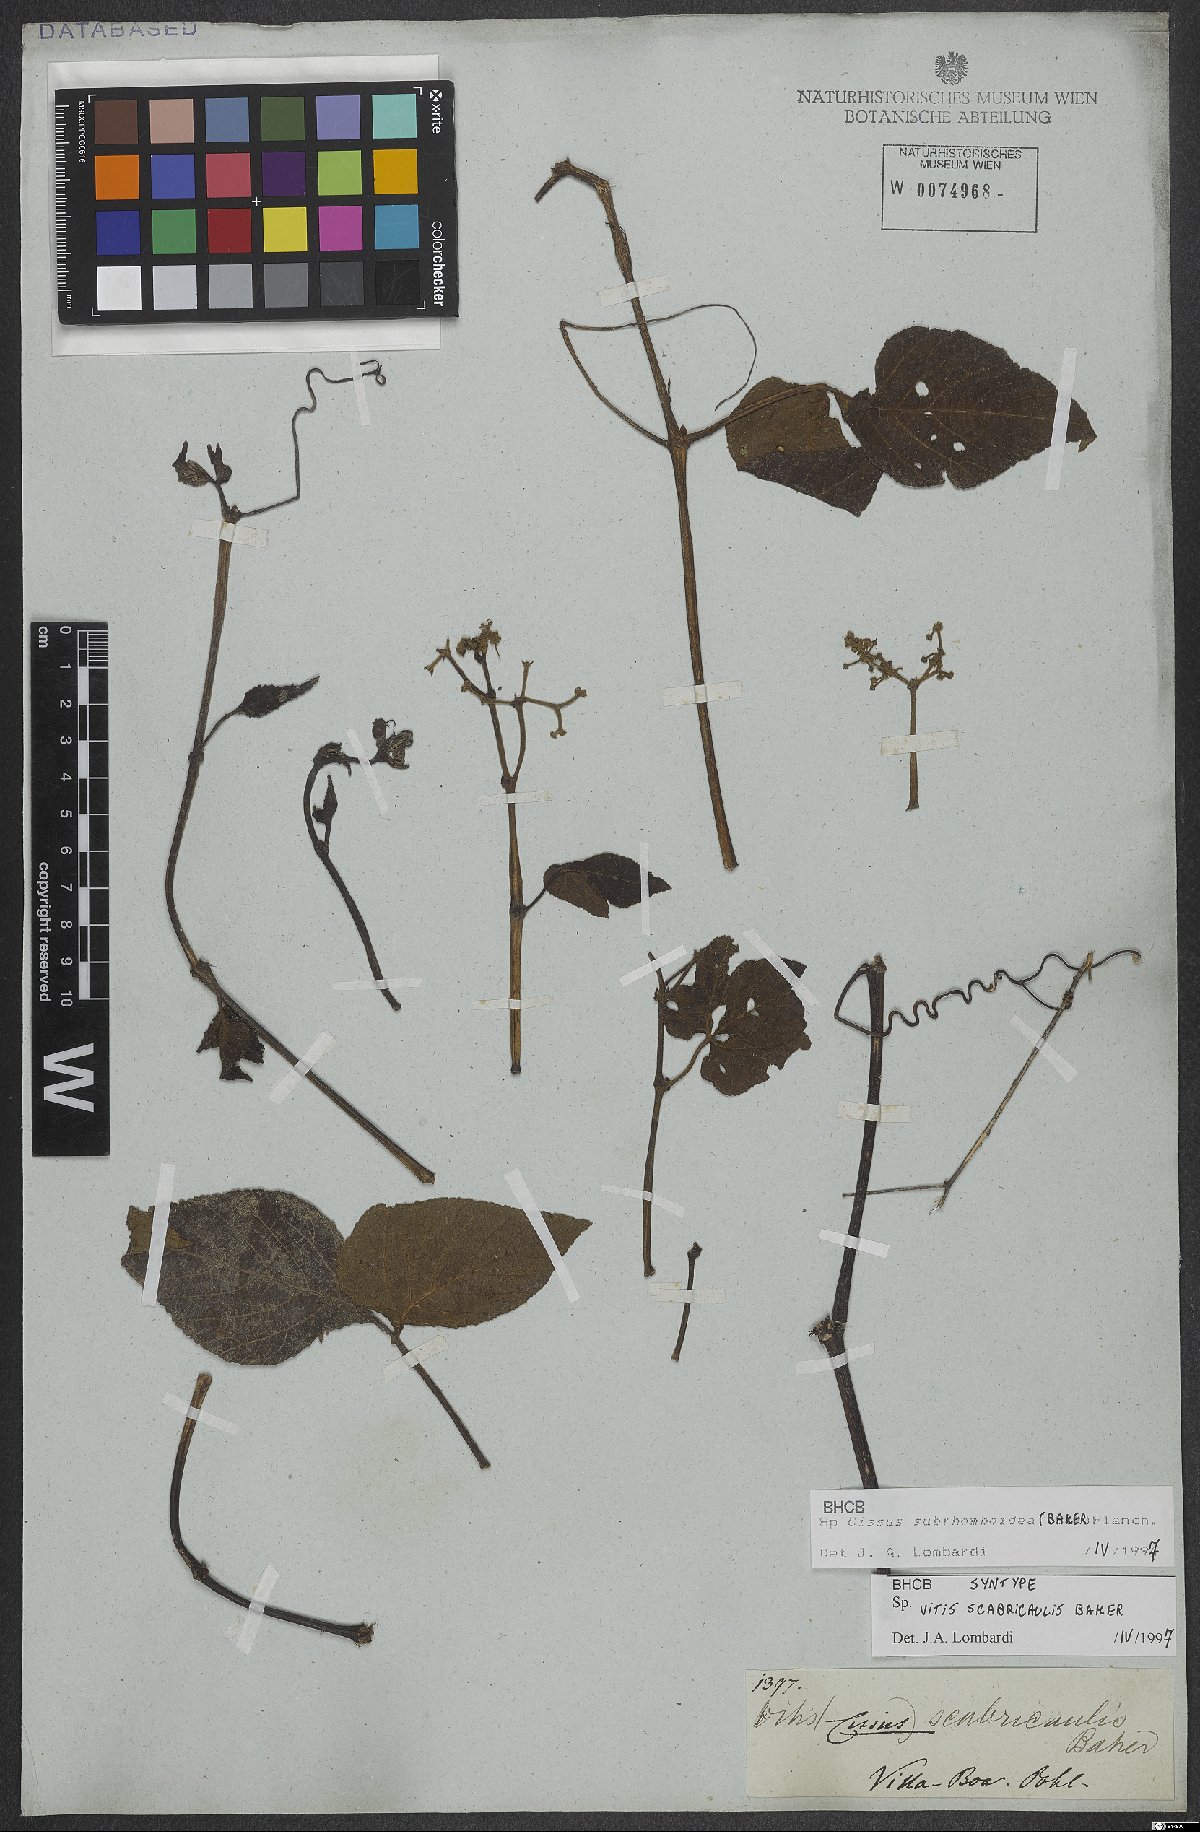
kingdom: Plantae
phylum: Tracheophyta
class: Magnoliopsida
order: Vitales
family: Vitaceae
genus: Cissus
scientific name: Cissus subrhomboidea
